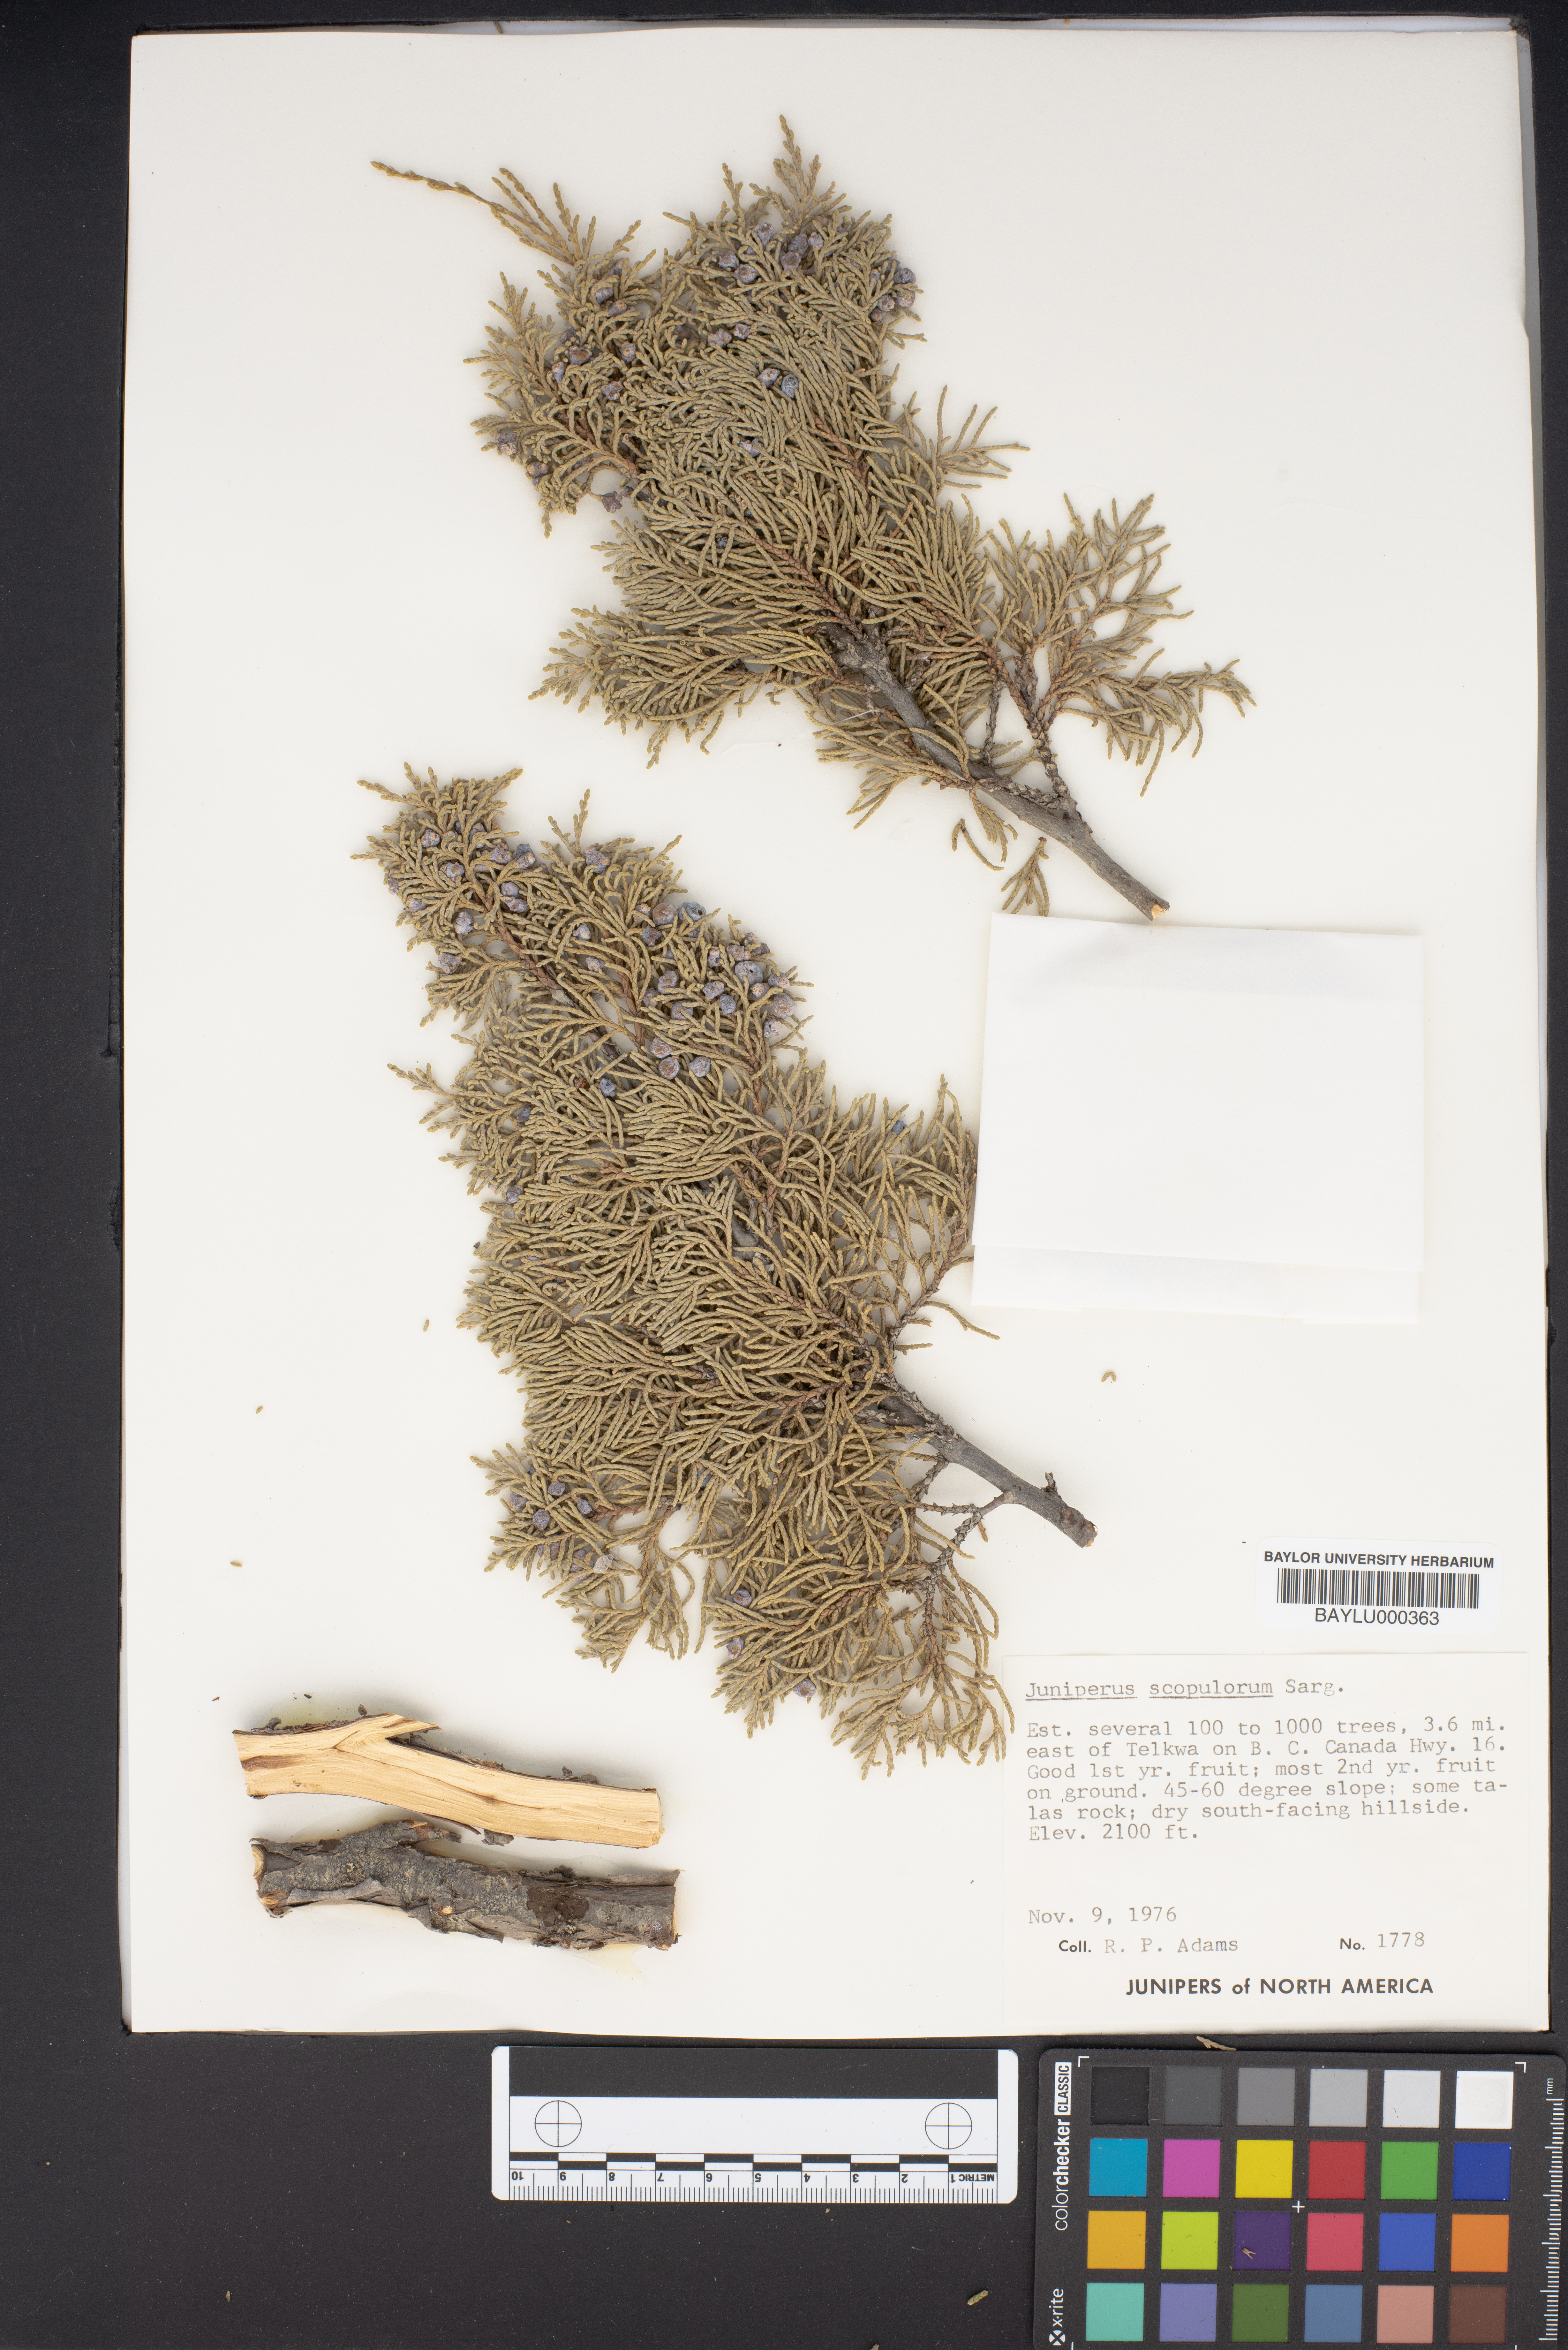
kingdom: Plantae
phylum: Tracheophyta
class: Pinopsida
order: Pinales
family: Cupressaceae
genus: Juniperus
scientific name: Juniperus scopulorum
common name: Rocky mountain juniper
